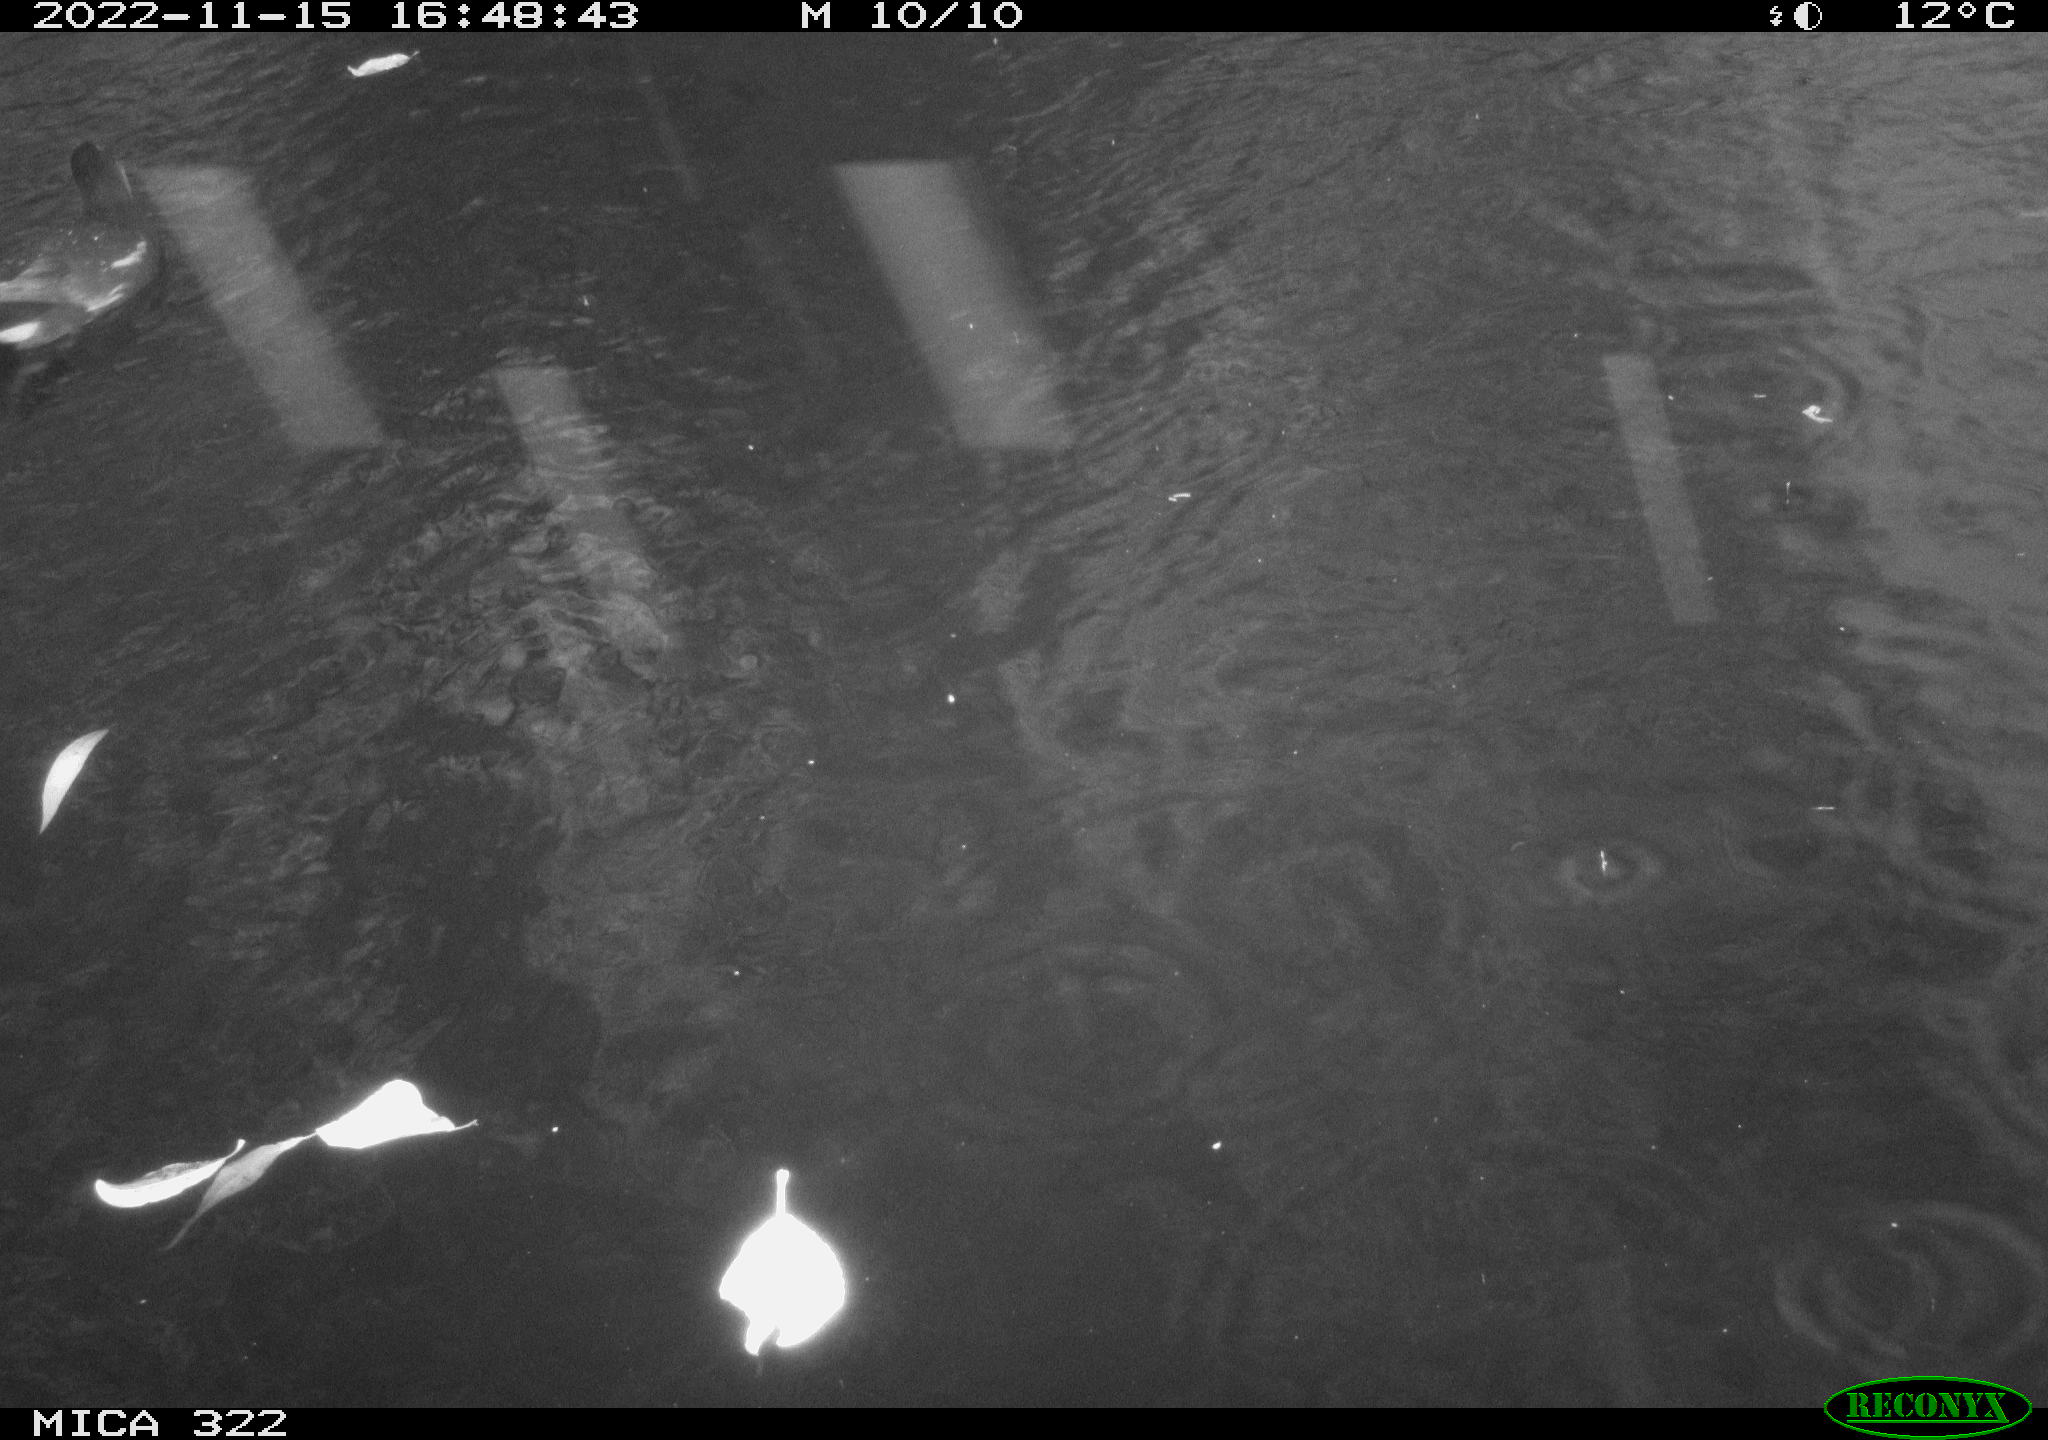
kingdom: Animalia
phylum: Chordata
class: Aves
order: Anseriformes
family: Anatidae
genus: Anas
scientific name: Anas
